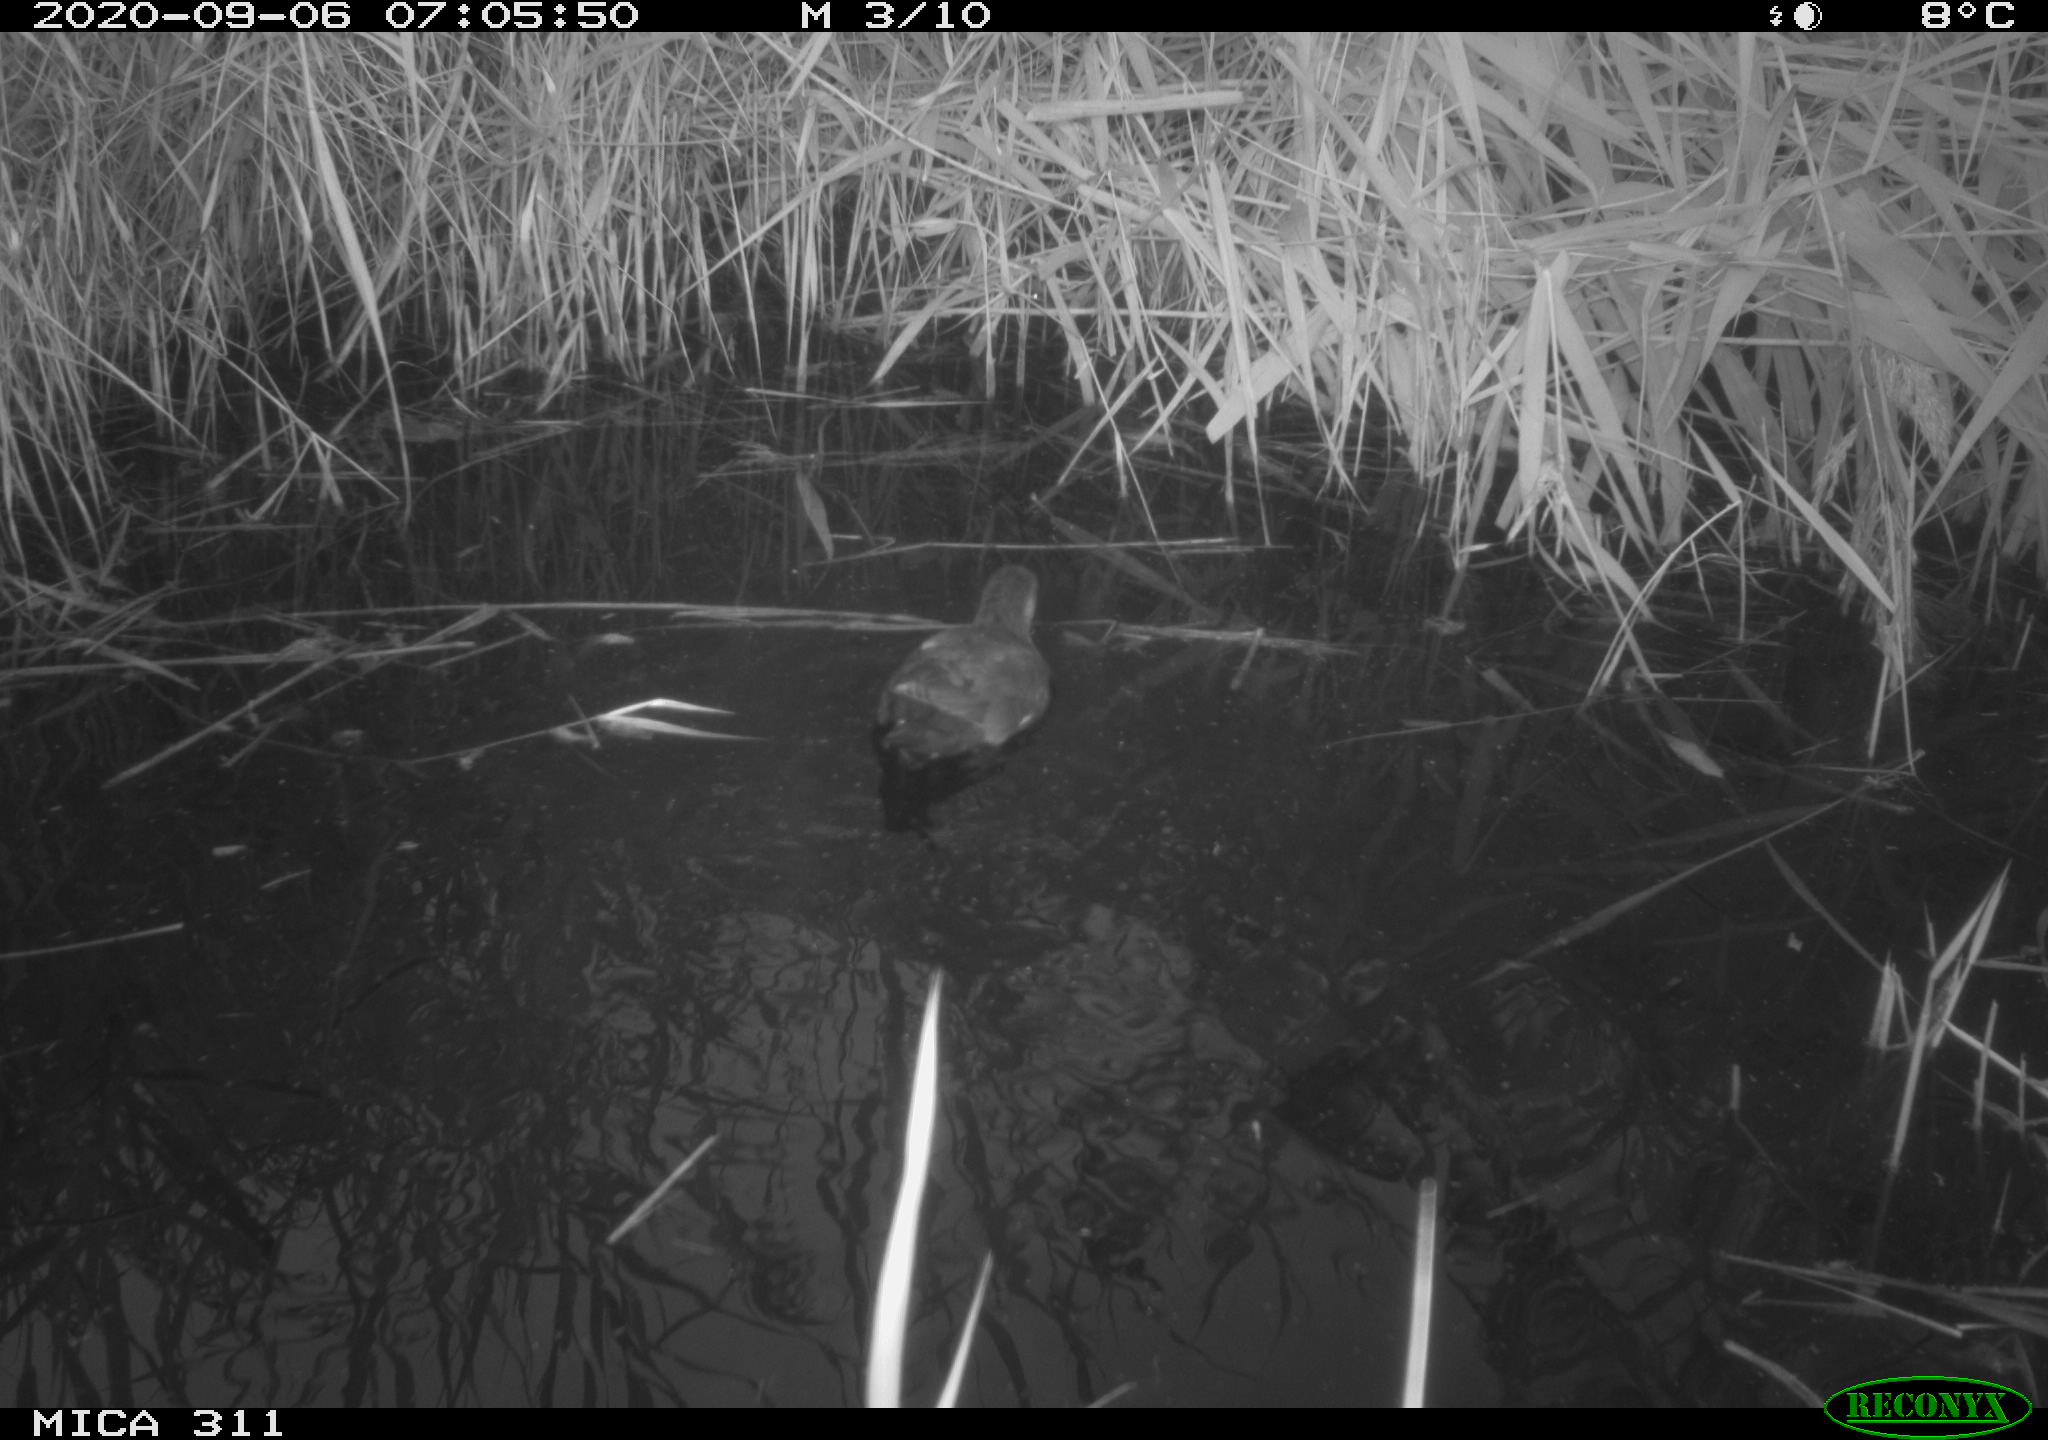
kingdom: Animalia
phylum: Chordata
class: Aves
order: Gruiformes
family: Rallidae
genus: Gallinula
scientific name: Gallinula chloropus
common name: Common moorhen
